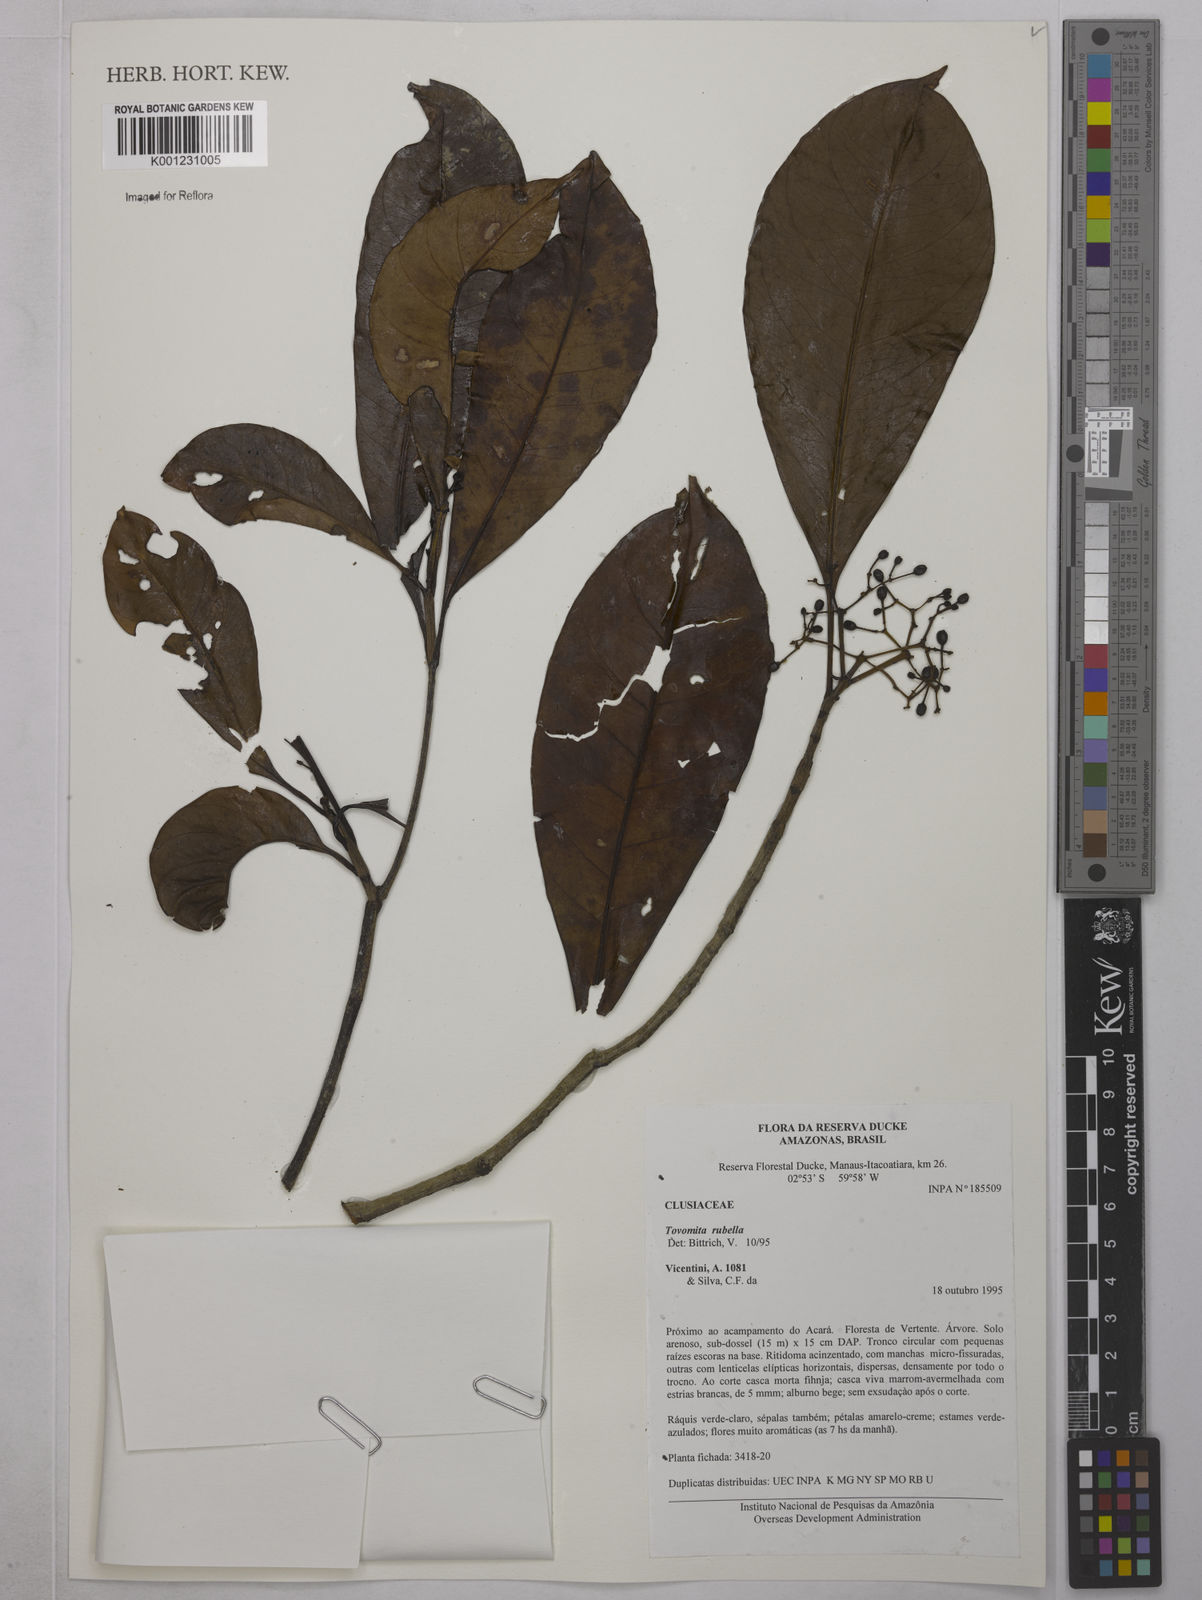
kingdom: Plantae
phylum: Tracheophyta
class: Magnoliopsida
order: Malpighiales
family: Clusiaceae
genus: Tovomita
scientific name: Tovomita rubella
